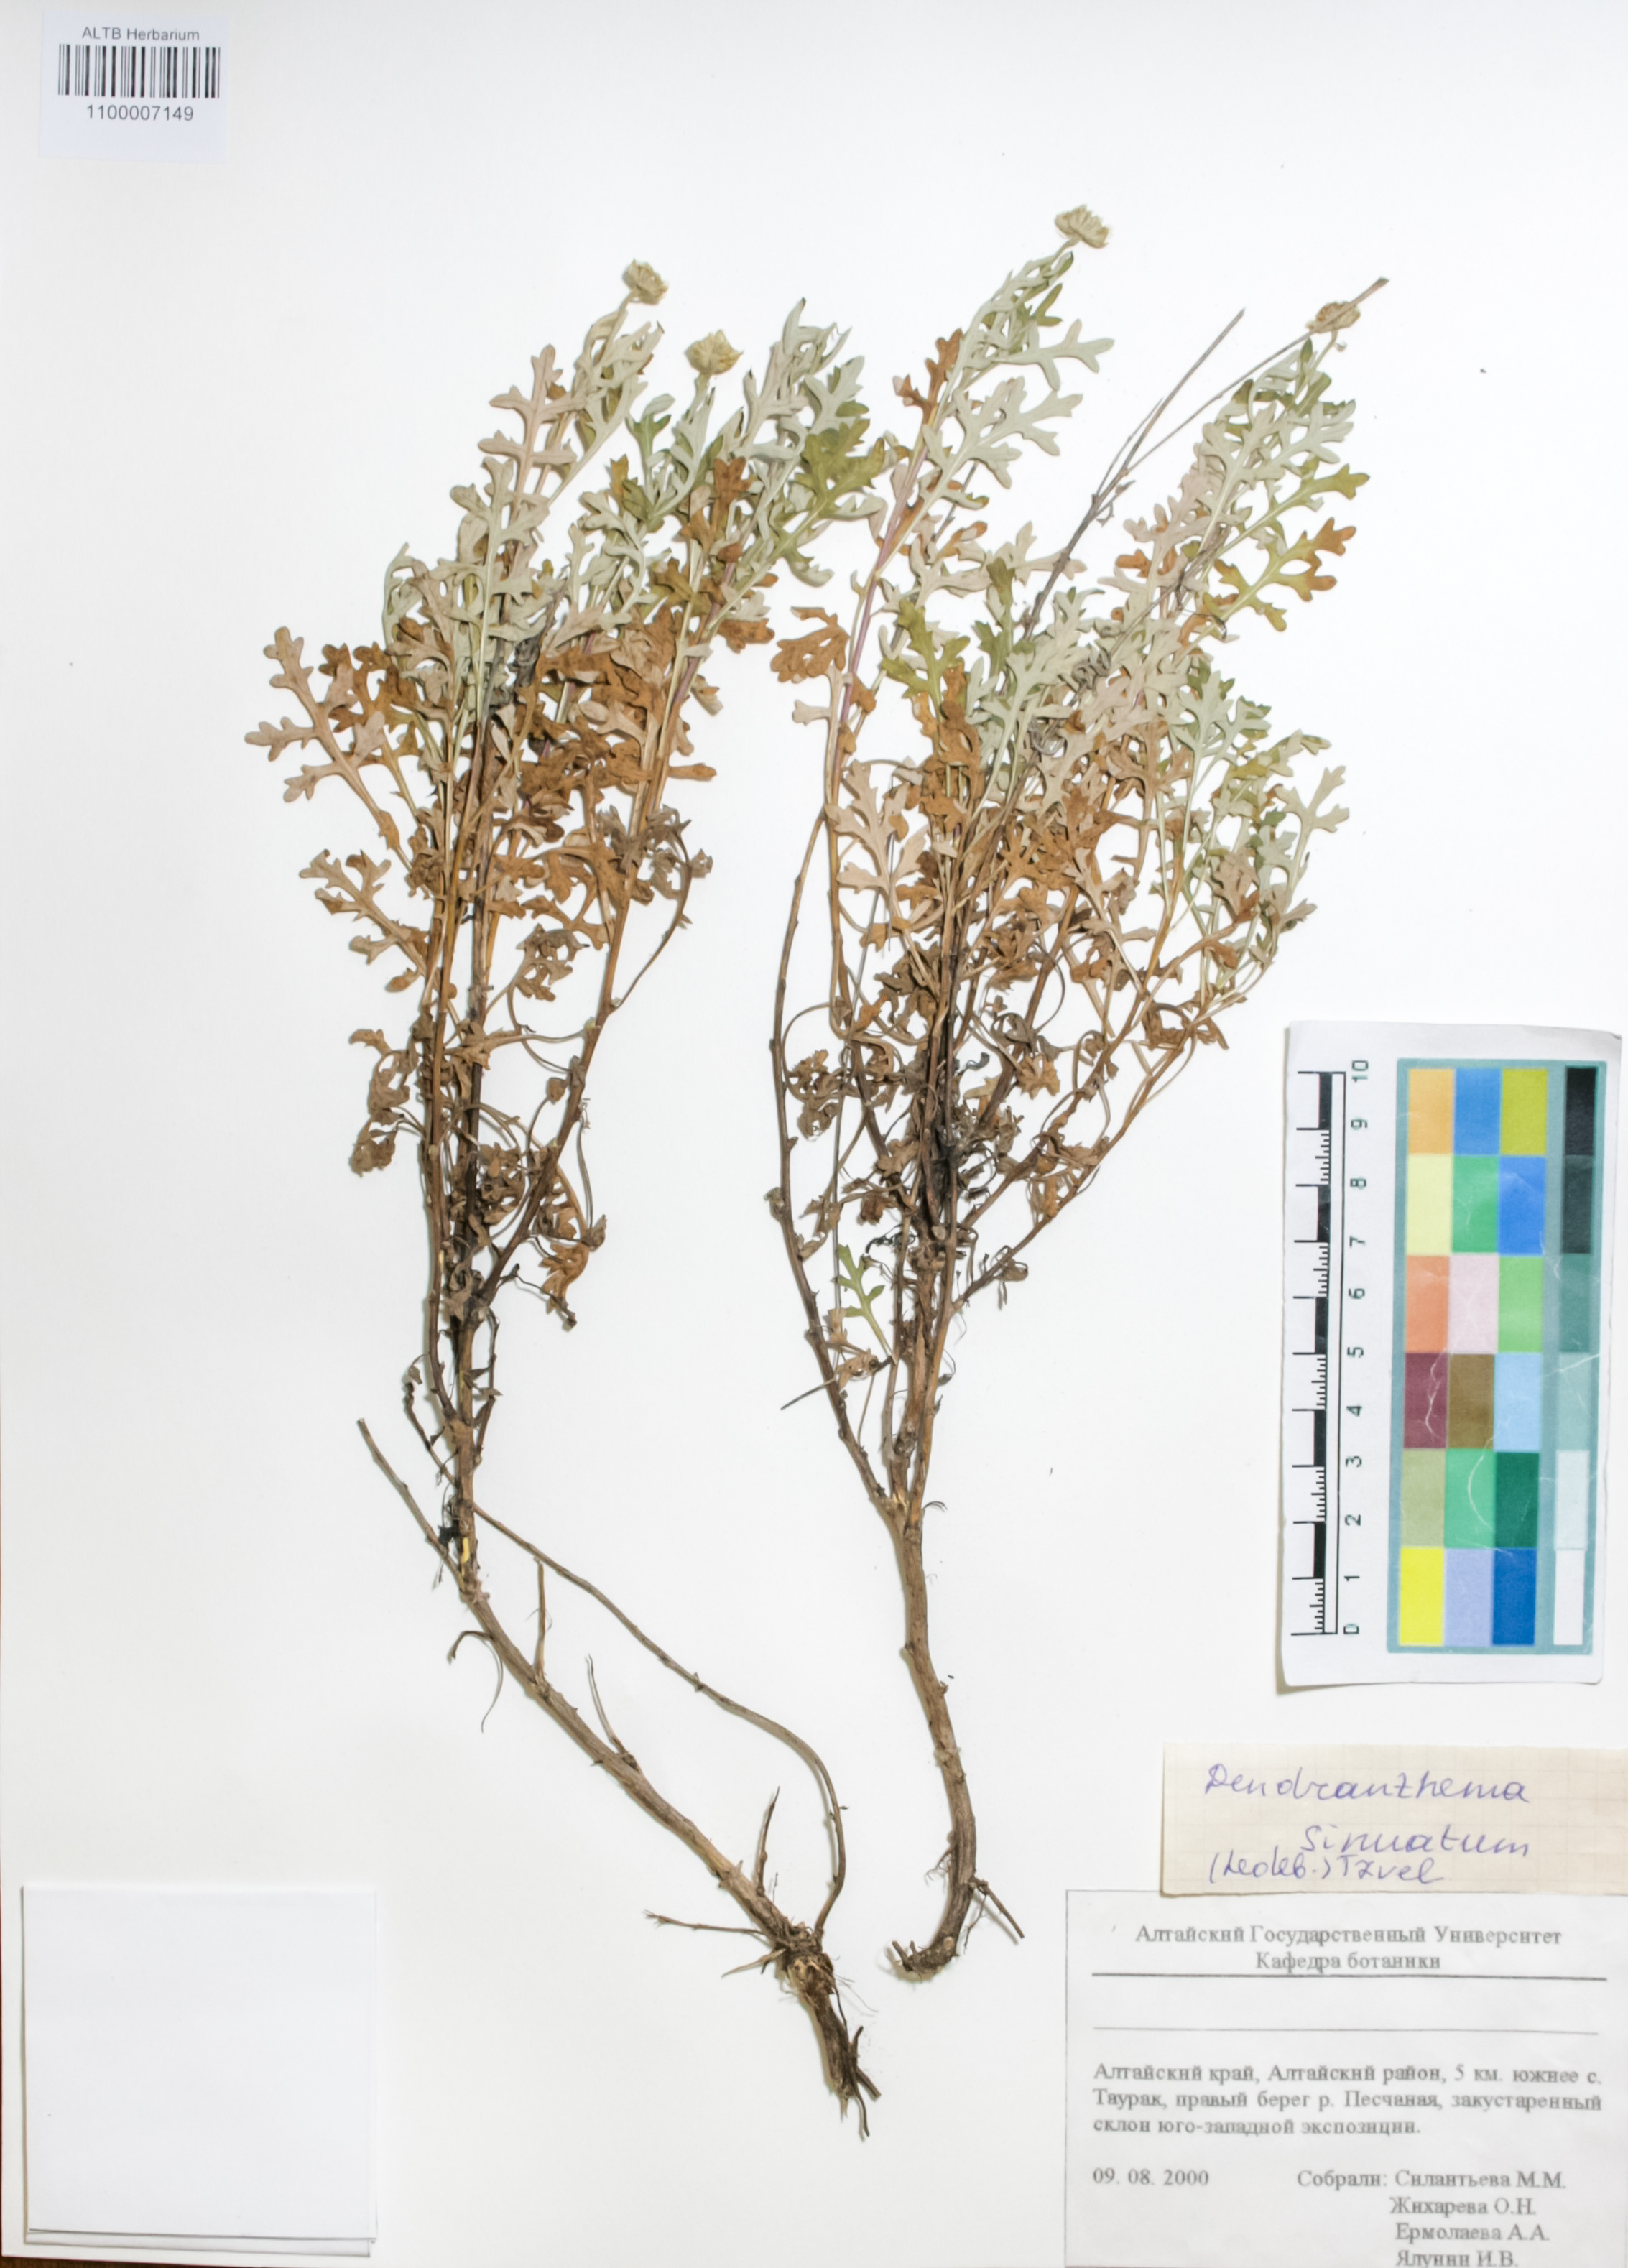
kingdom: Plantae
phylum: Tracheophyta
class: Magnoliopsida
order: Asterales
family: Asteraceae
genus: Chrysanthemum
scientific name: Chrysanthemum sinuatum
